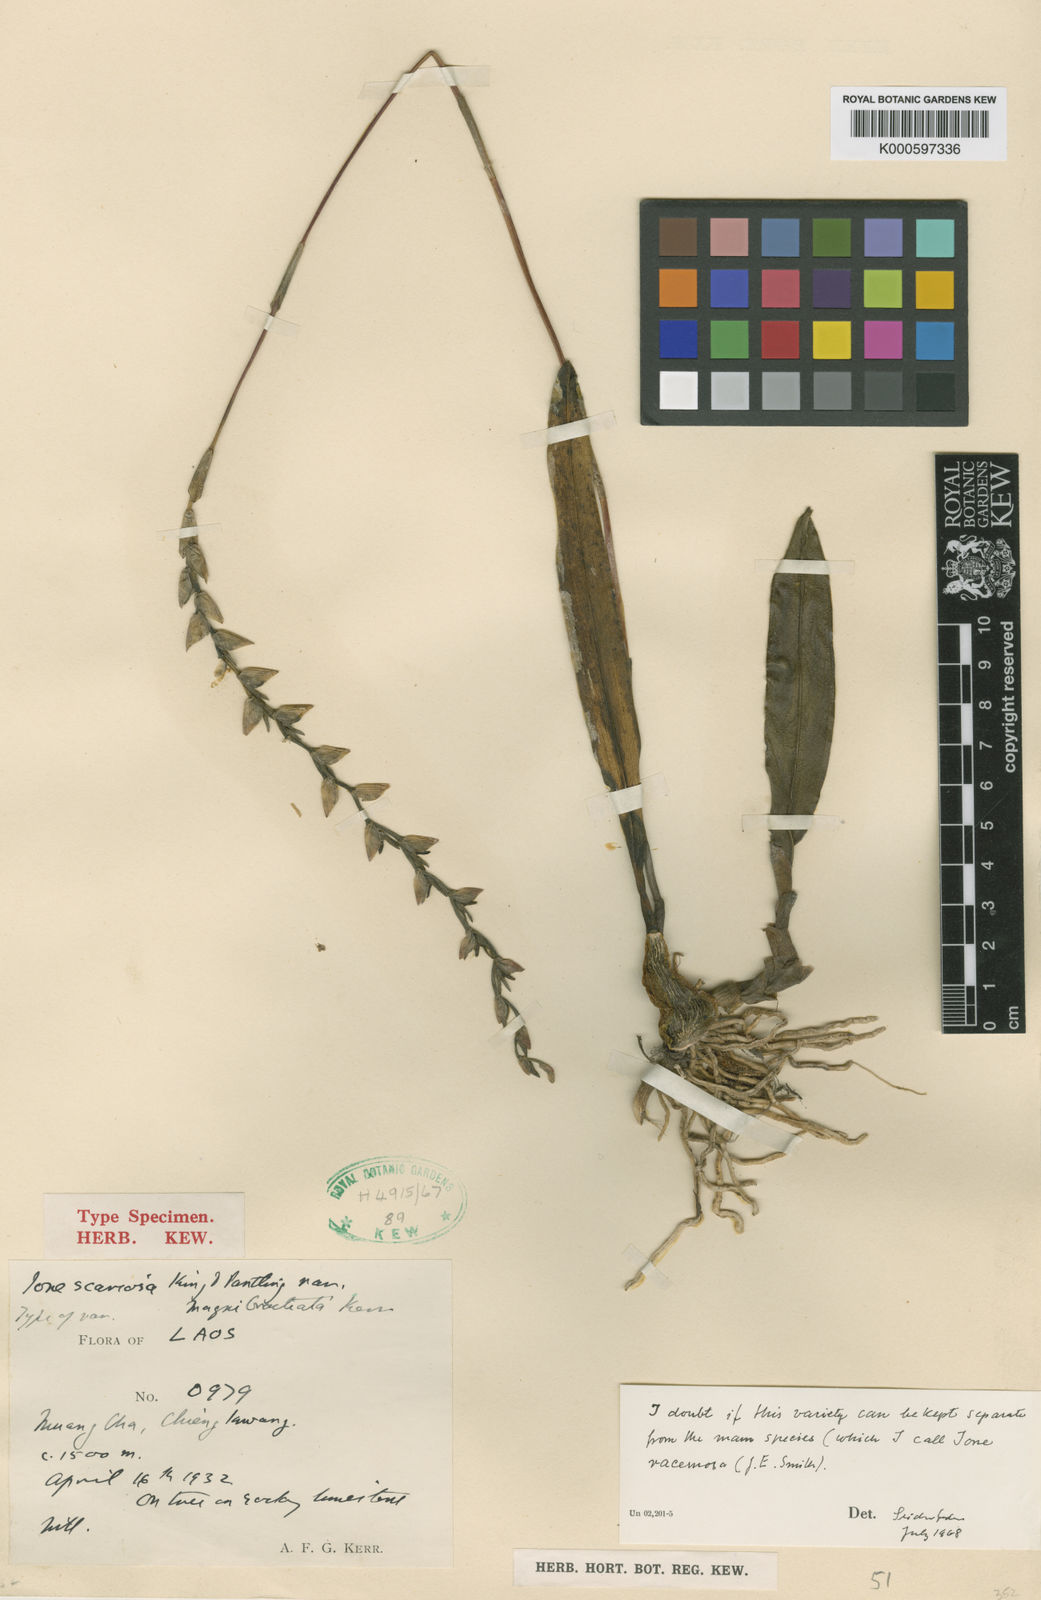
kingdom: Plantae
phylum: Tracheophyta
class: Liliopsida
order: Asparagales
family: Orchidaceae
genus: Bulbophyllum
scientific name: Bulbophyllum reptans
